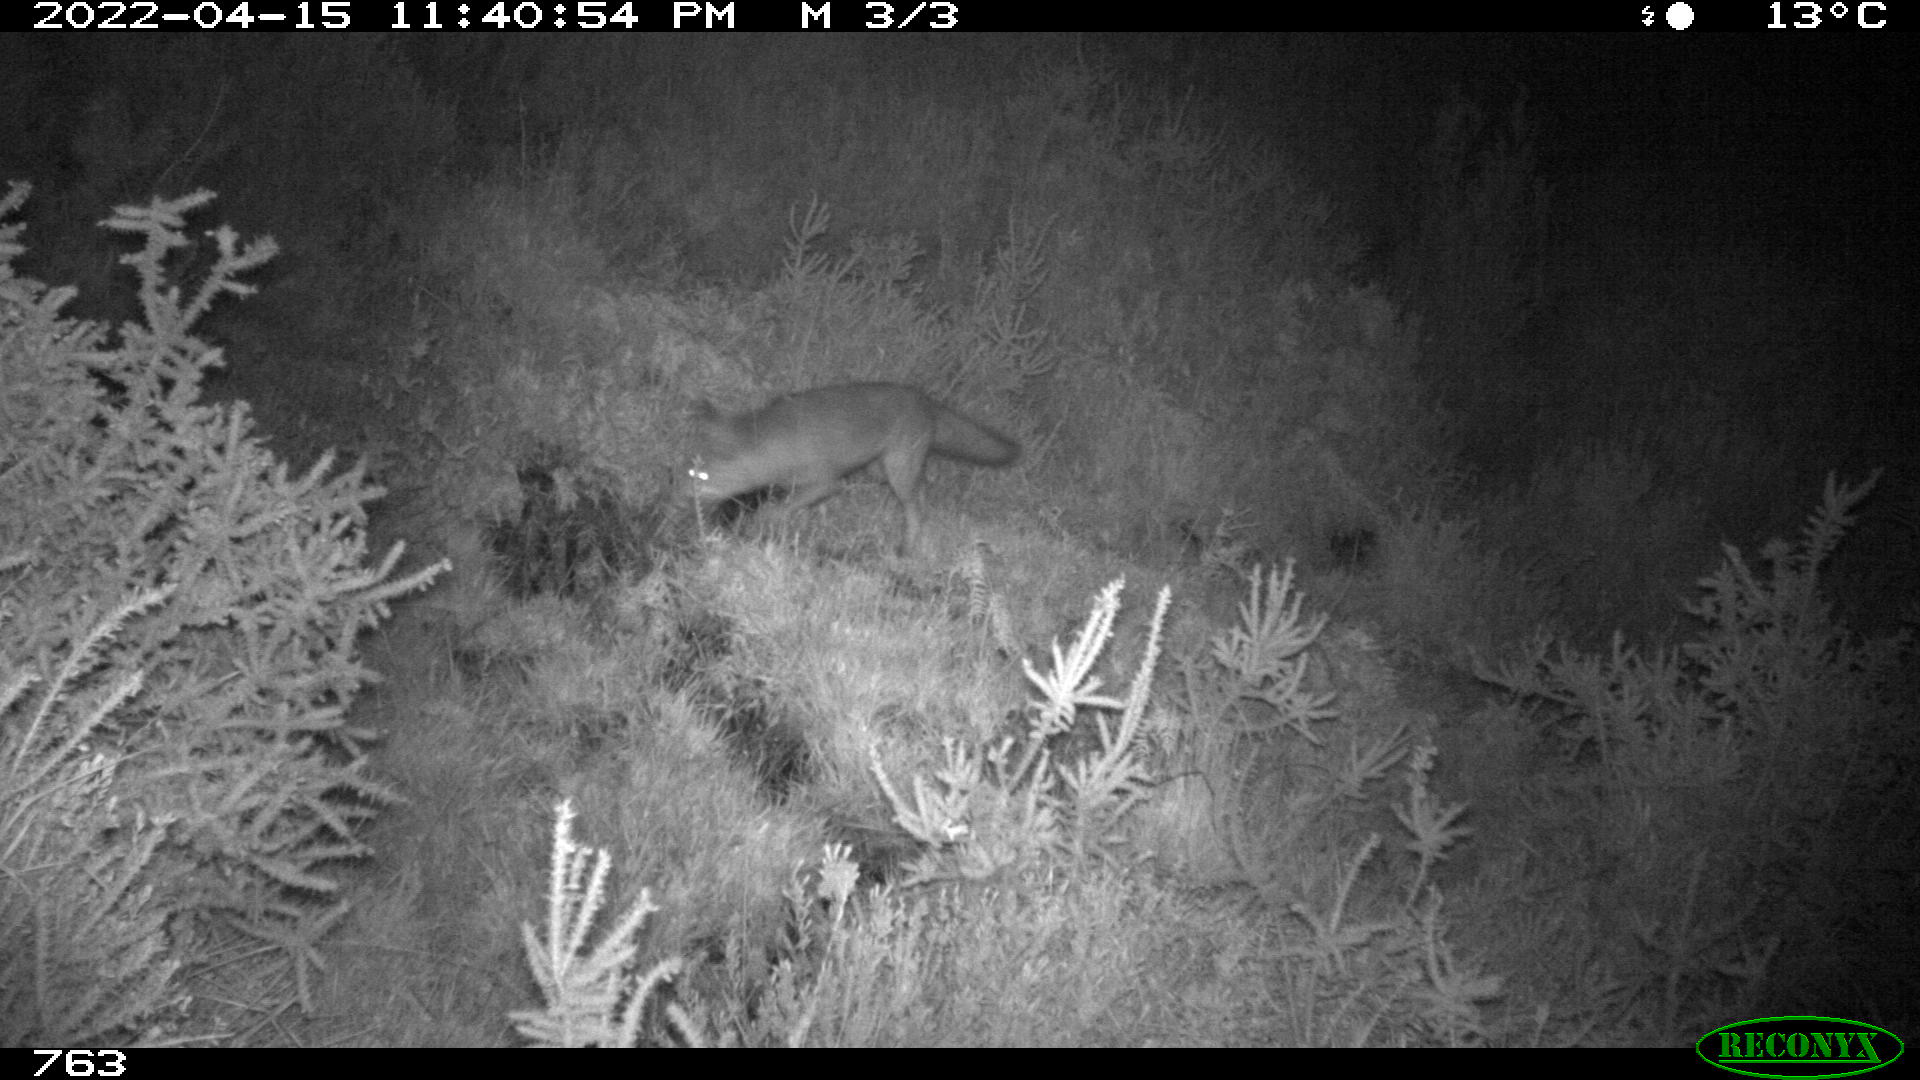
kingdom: Animalia
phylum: Chordata
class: Mammalia
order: Carnivora
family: Canidae
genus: Vulpes
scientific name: Vulpes vulpes
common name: Red fox
